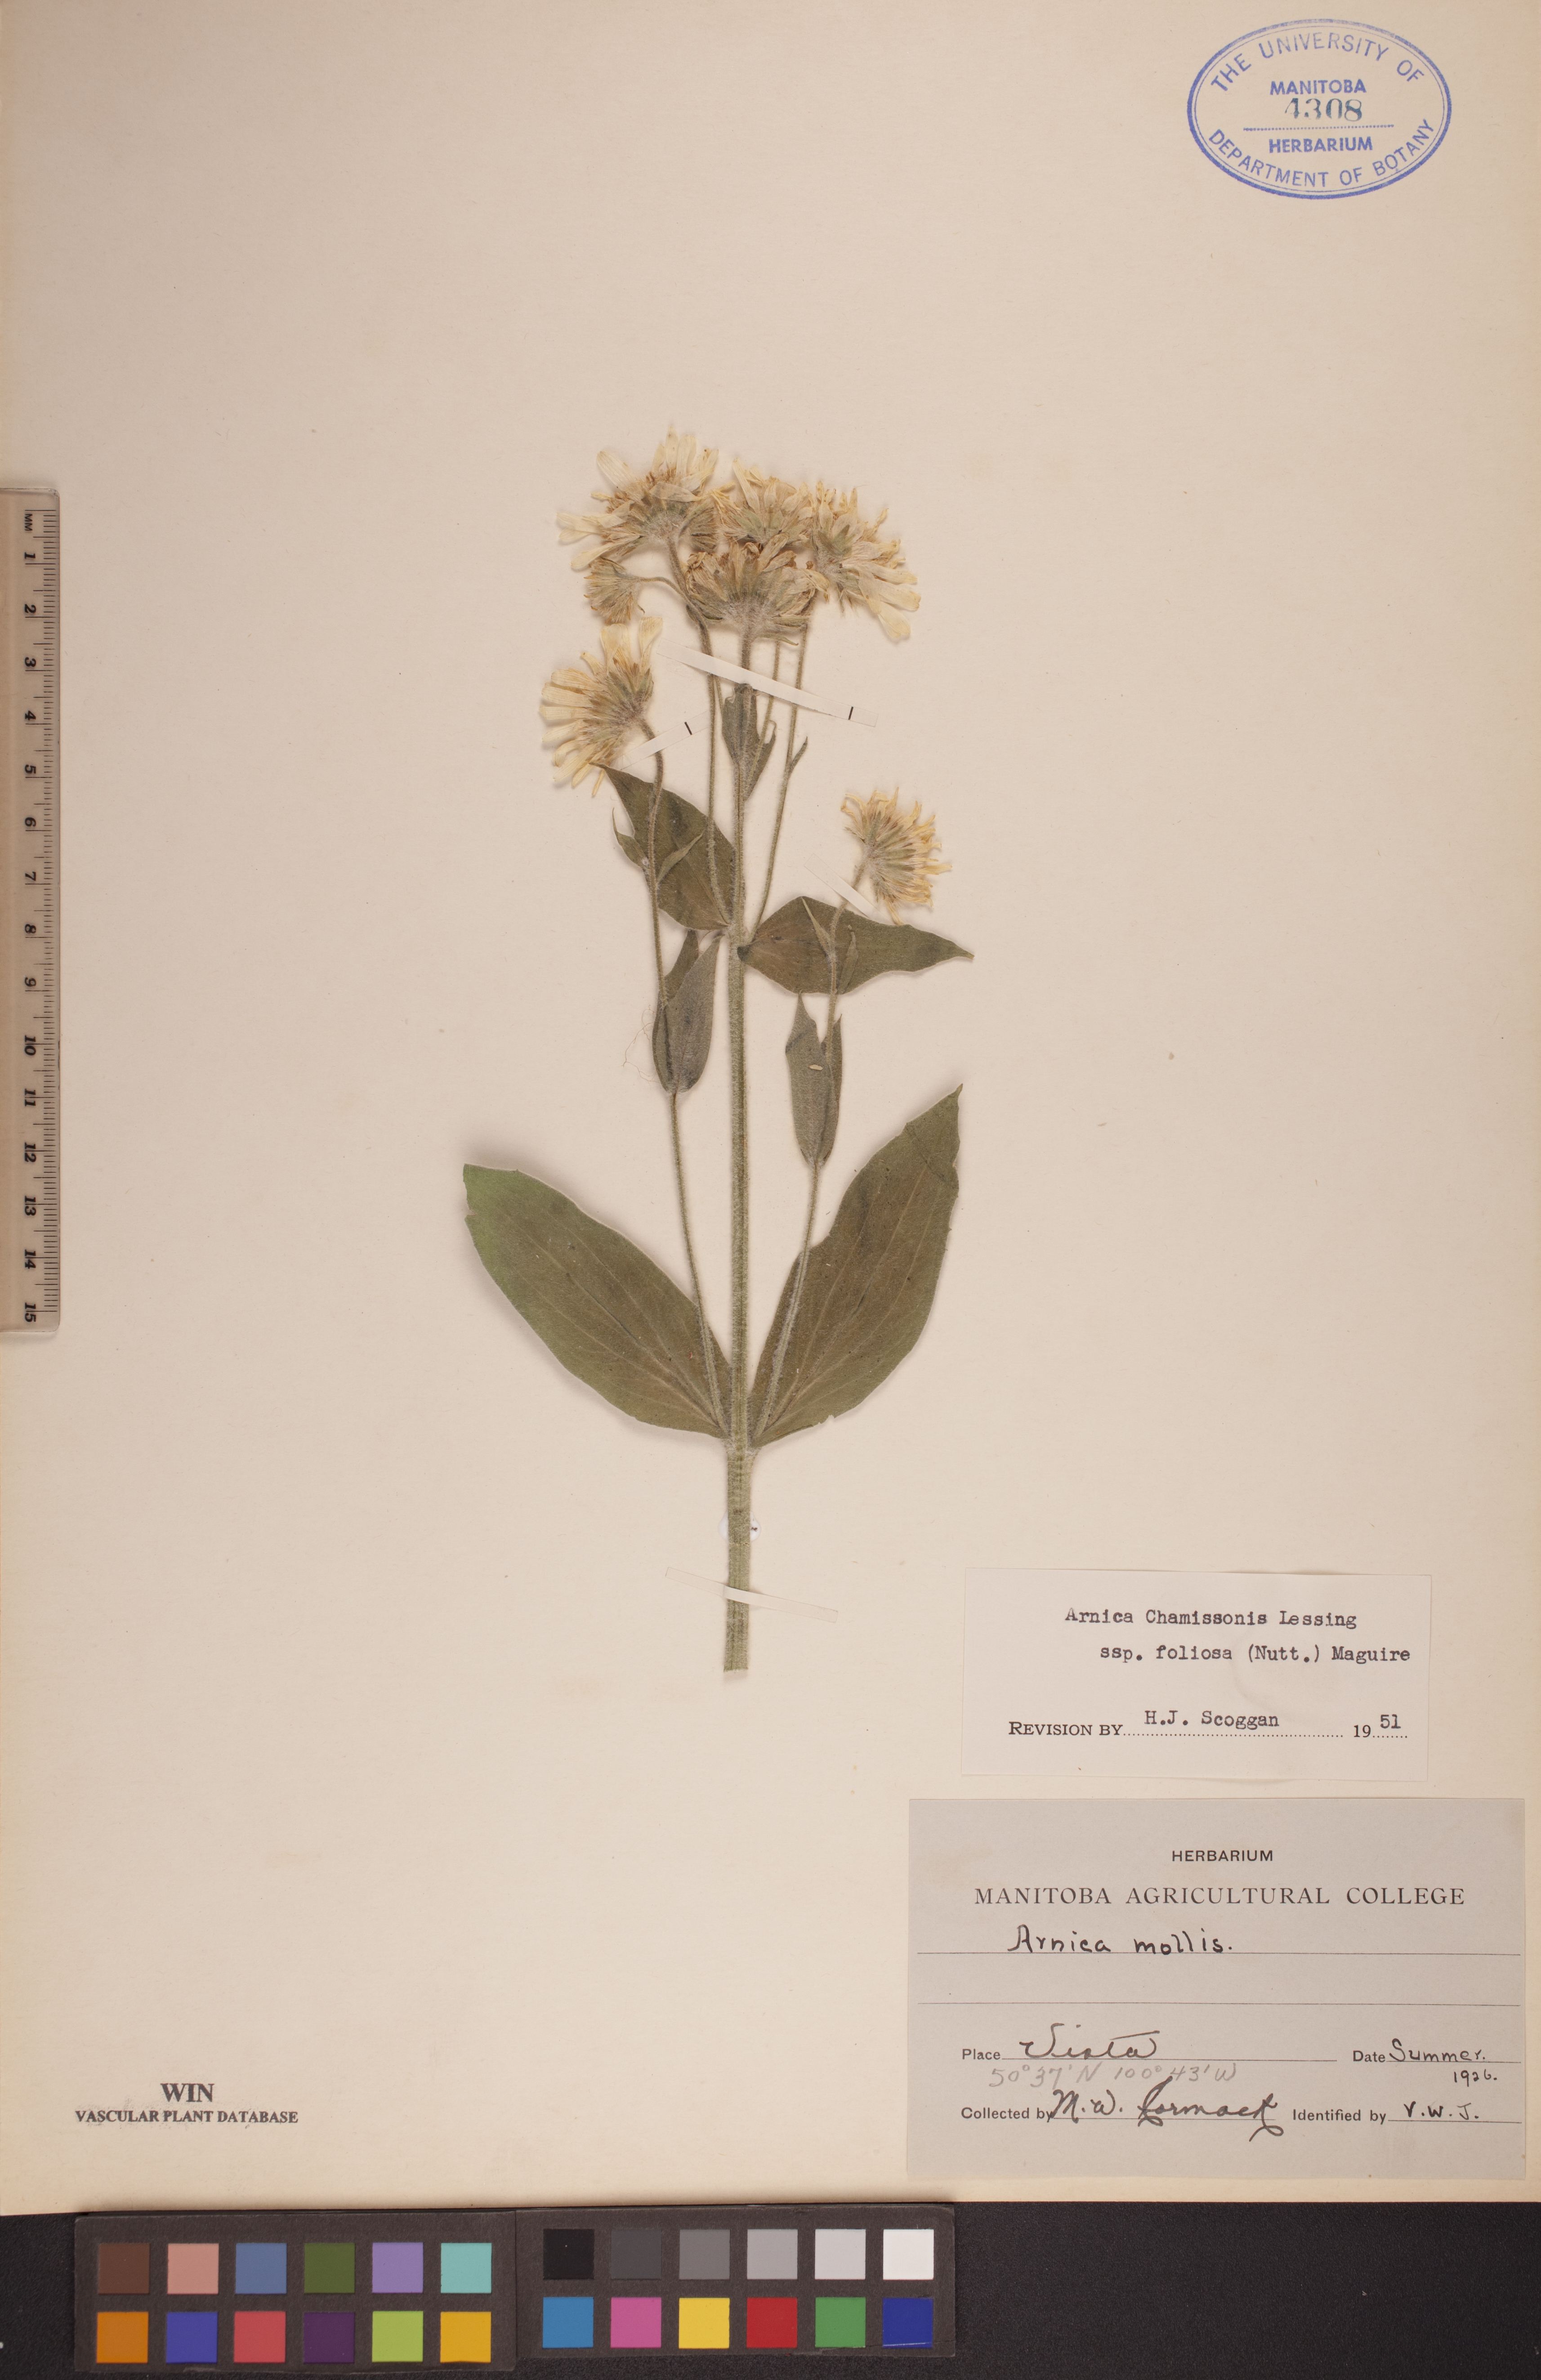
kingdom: Plantae
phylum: Tracheophyta
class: Magnoliopsida
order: Asterales
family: Asteraceae
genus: Arnica
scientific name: Arnica chamissonis
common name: Leafy arnica
